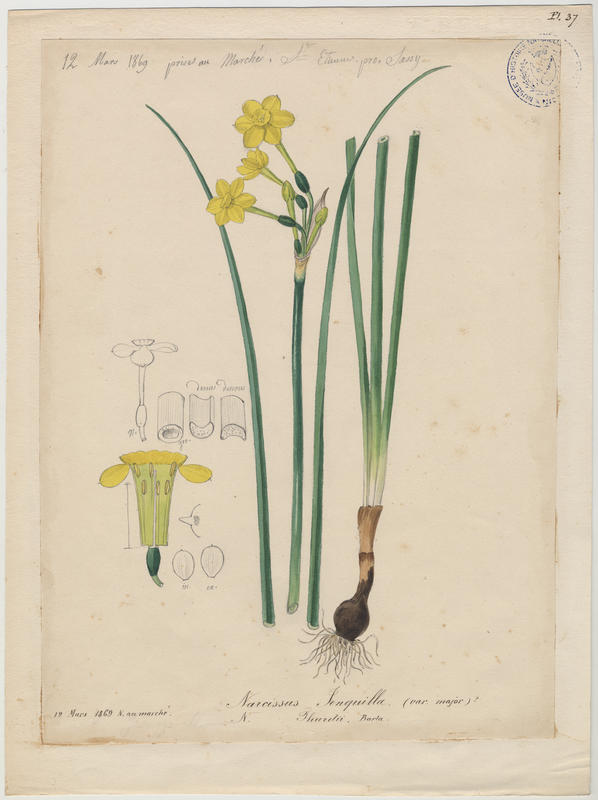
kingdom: Plantae
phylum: Tracheophyta
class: Liliopsida
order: Asparagales
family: Amaryllidaceae
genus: Narcissus
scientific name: Narcissus jonquilla
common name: Jonquil
